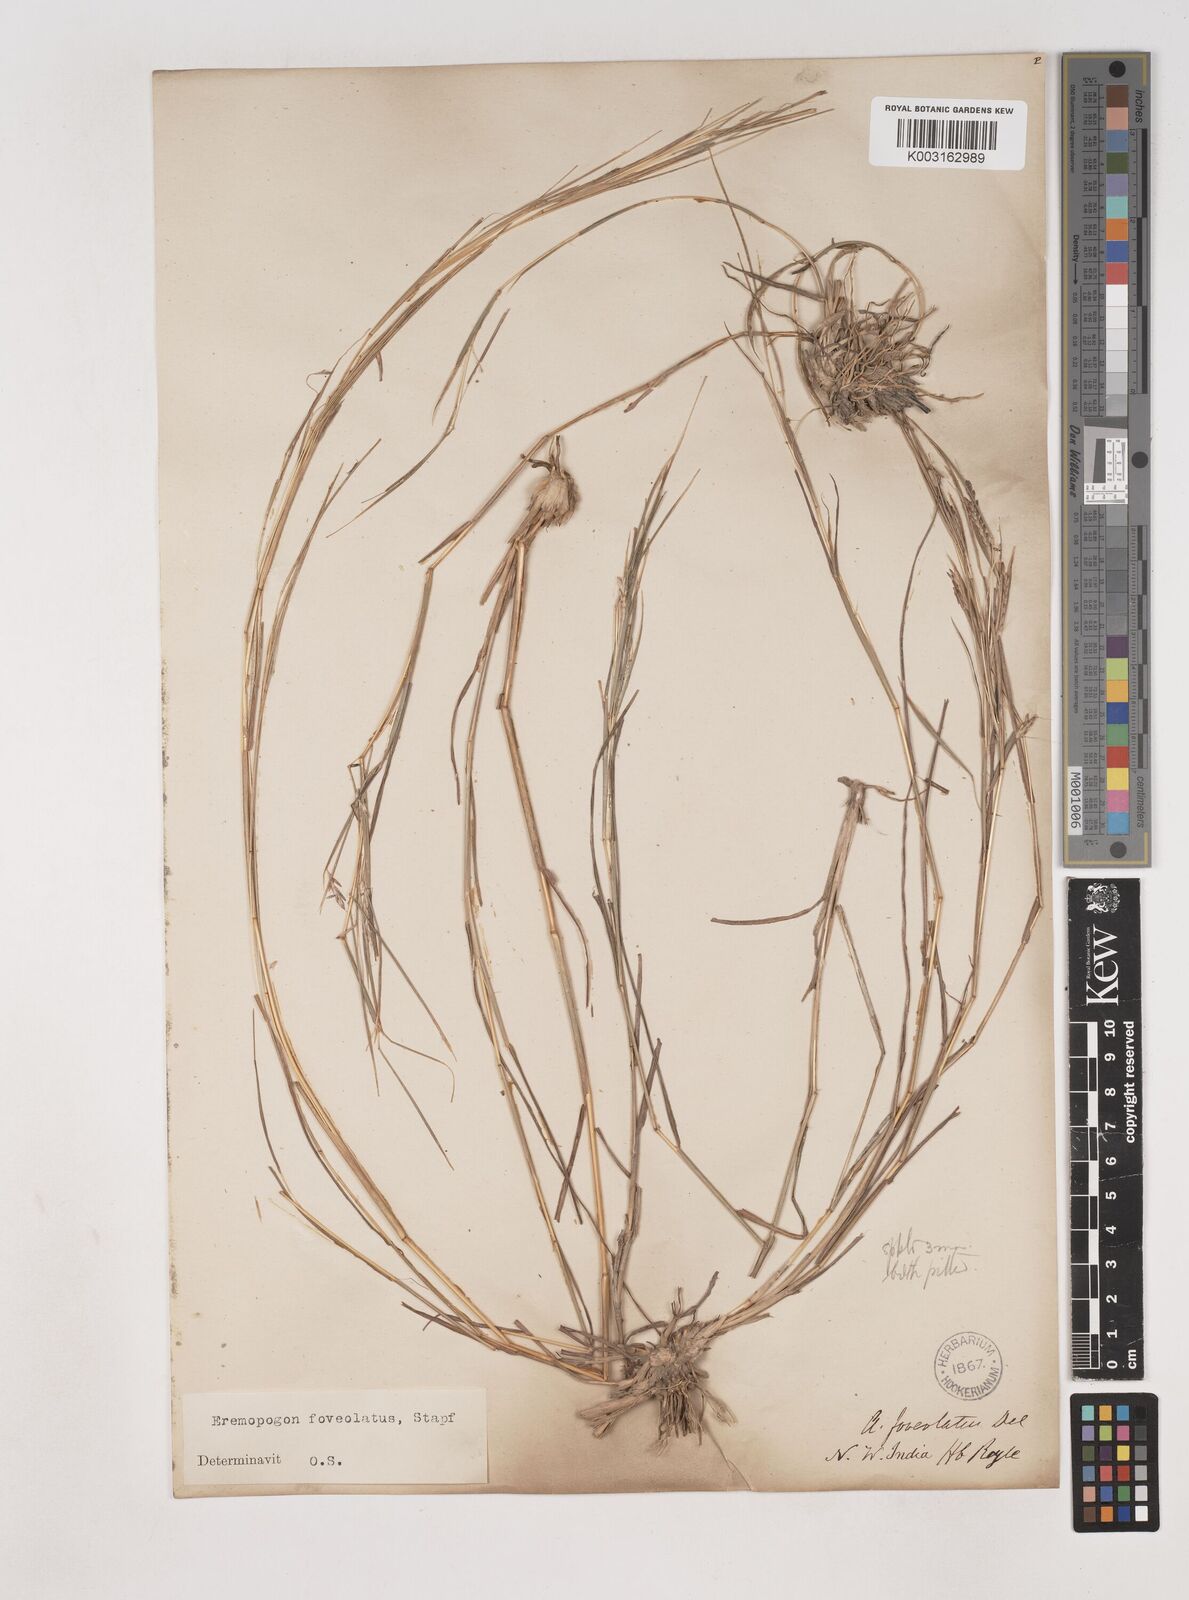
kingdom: Plantae
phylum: Tracheophyta
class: Liliopsida
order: Poales
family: Poaceae
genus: Dichanthium
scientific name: Dichanthium foveolatum
